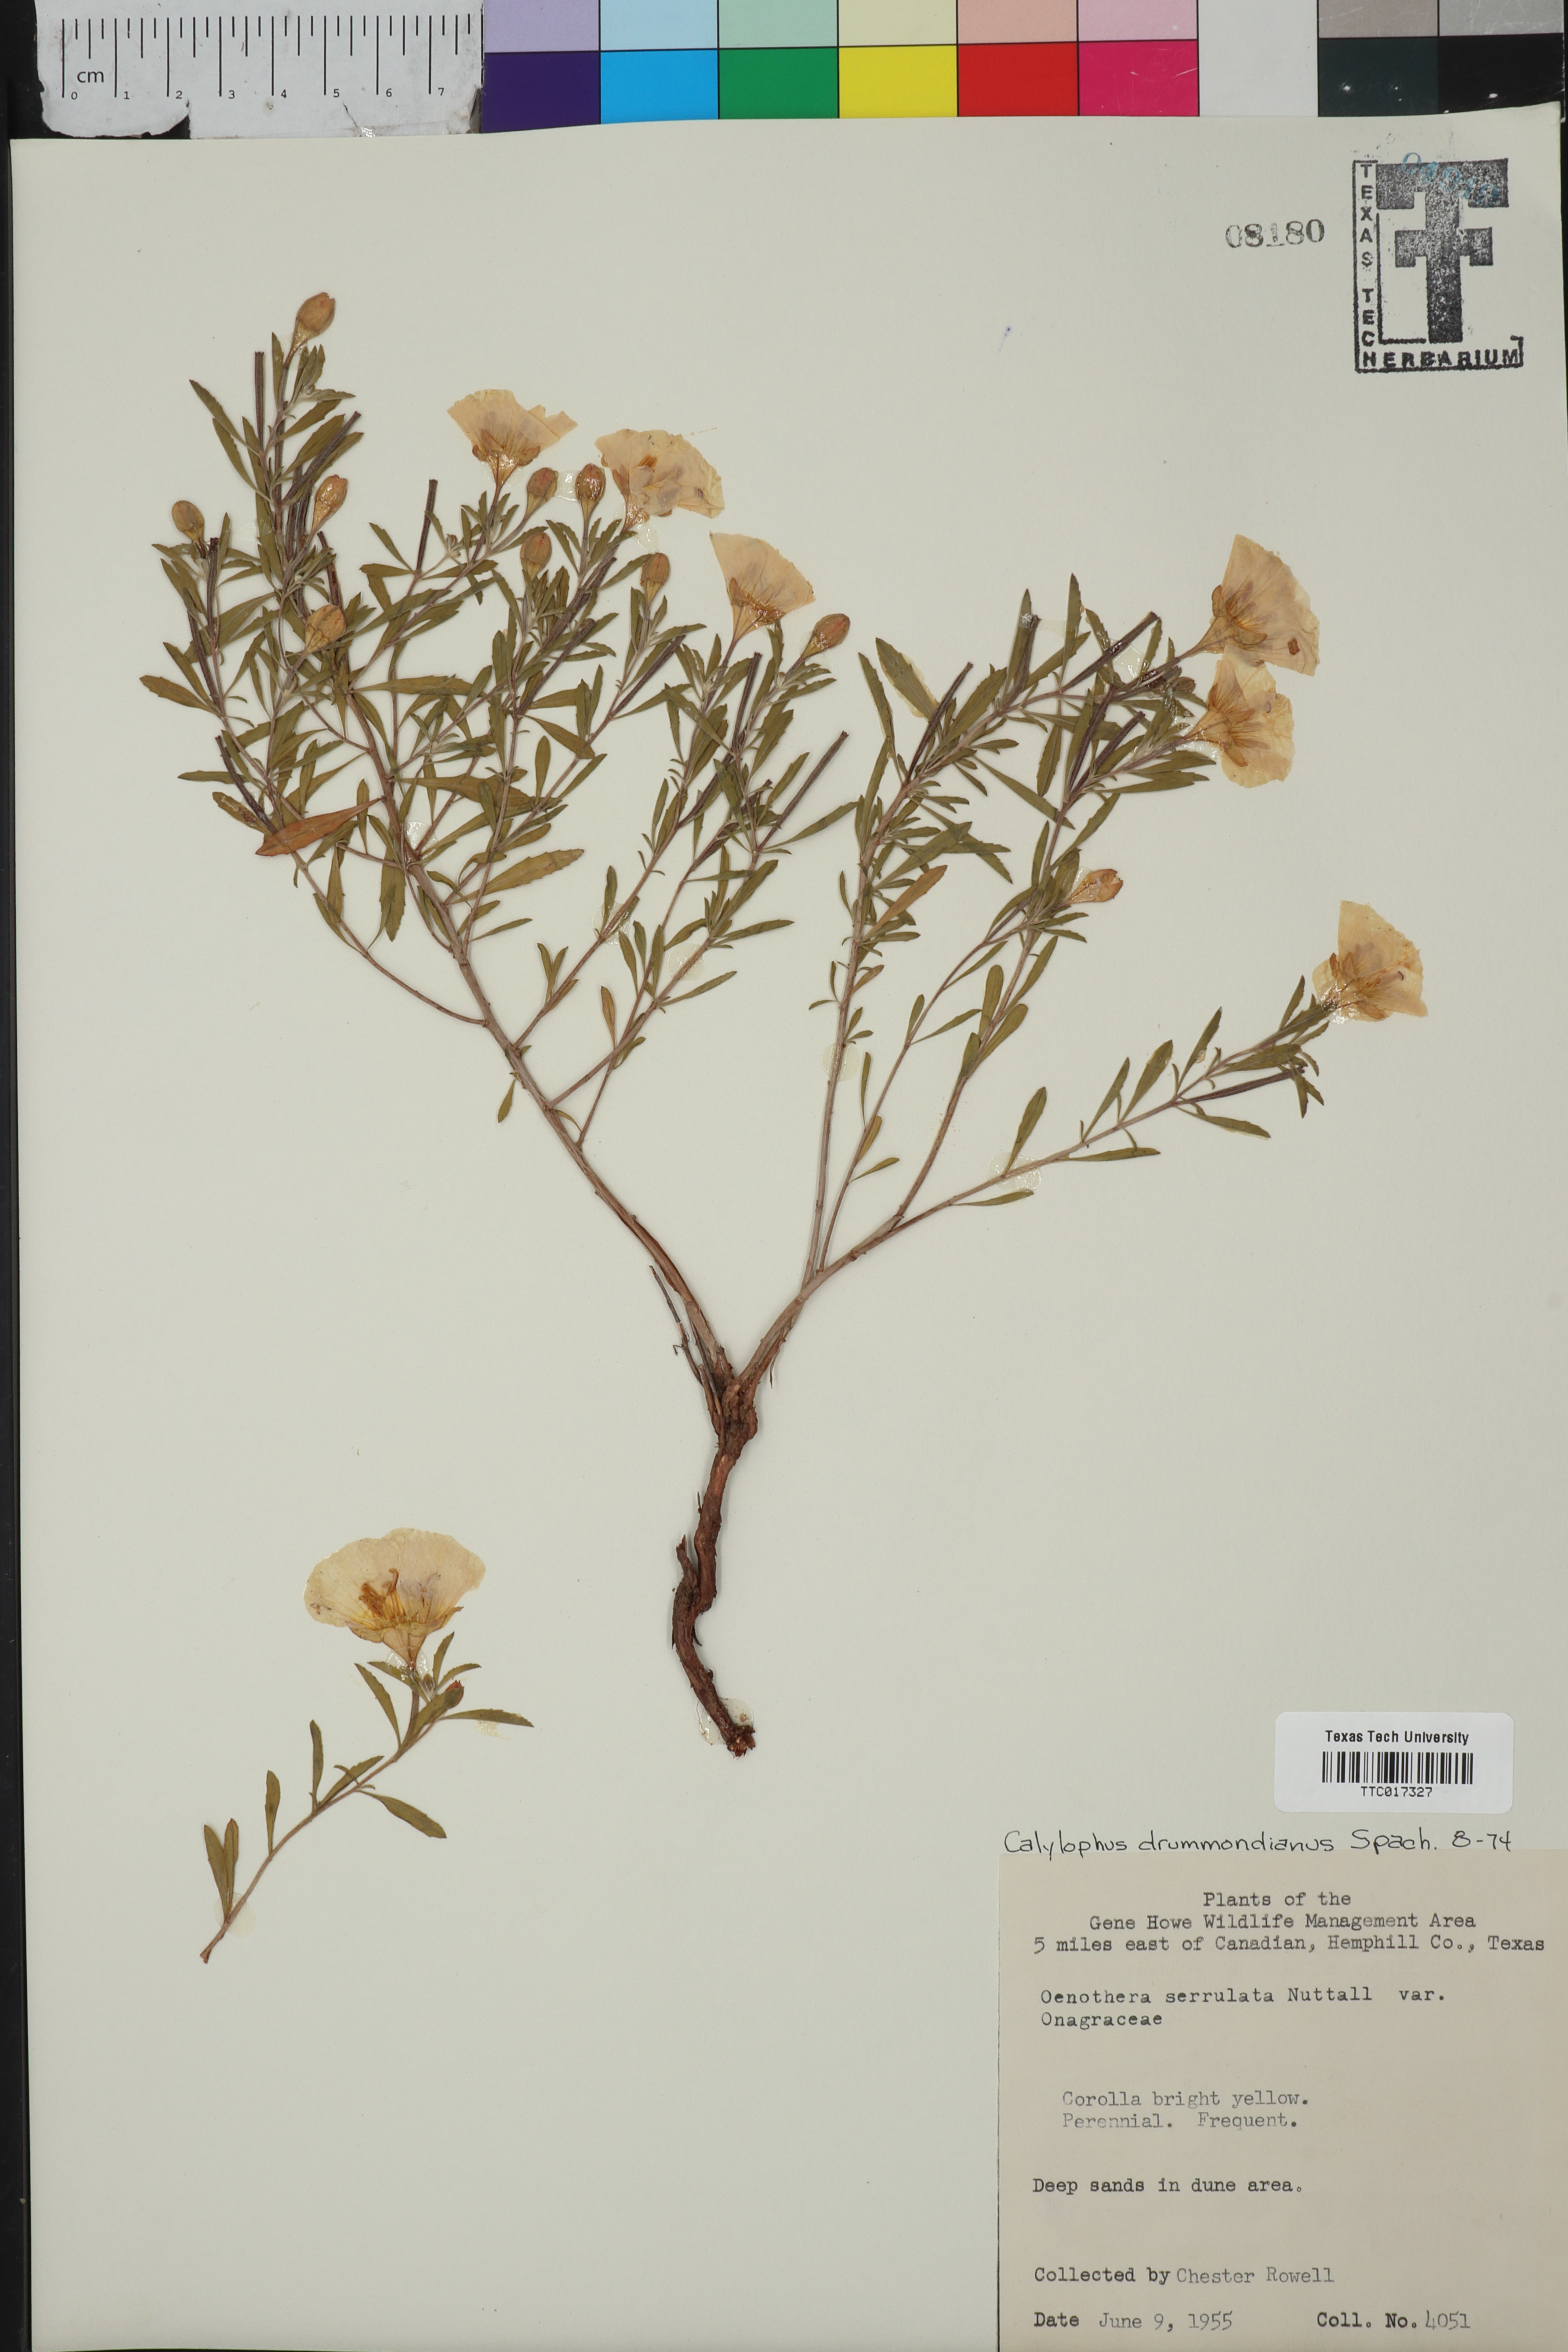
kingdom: Plantae
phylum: Tracheophyta
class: Magnoliopsida
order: Myrtales
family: Onagraceae
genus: Oenothera
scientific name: Oenothera serrulata
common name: Half-shrub calylophus
